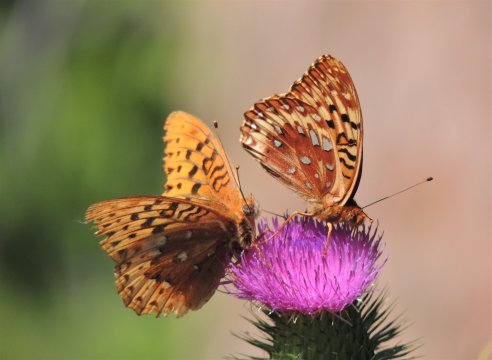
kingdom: Animalia
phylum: Arthropoda
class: Insecta
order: Lepidoptera
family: Nymphalidae
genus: Speyeria
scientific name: Speyeria cybele
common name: Great Spangled Fritillary
